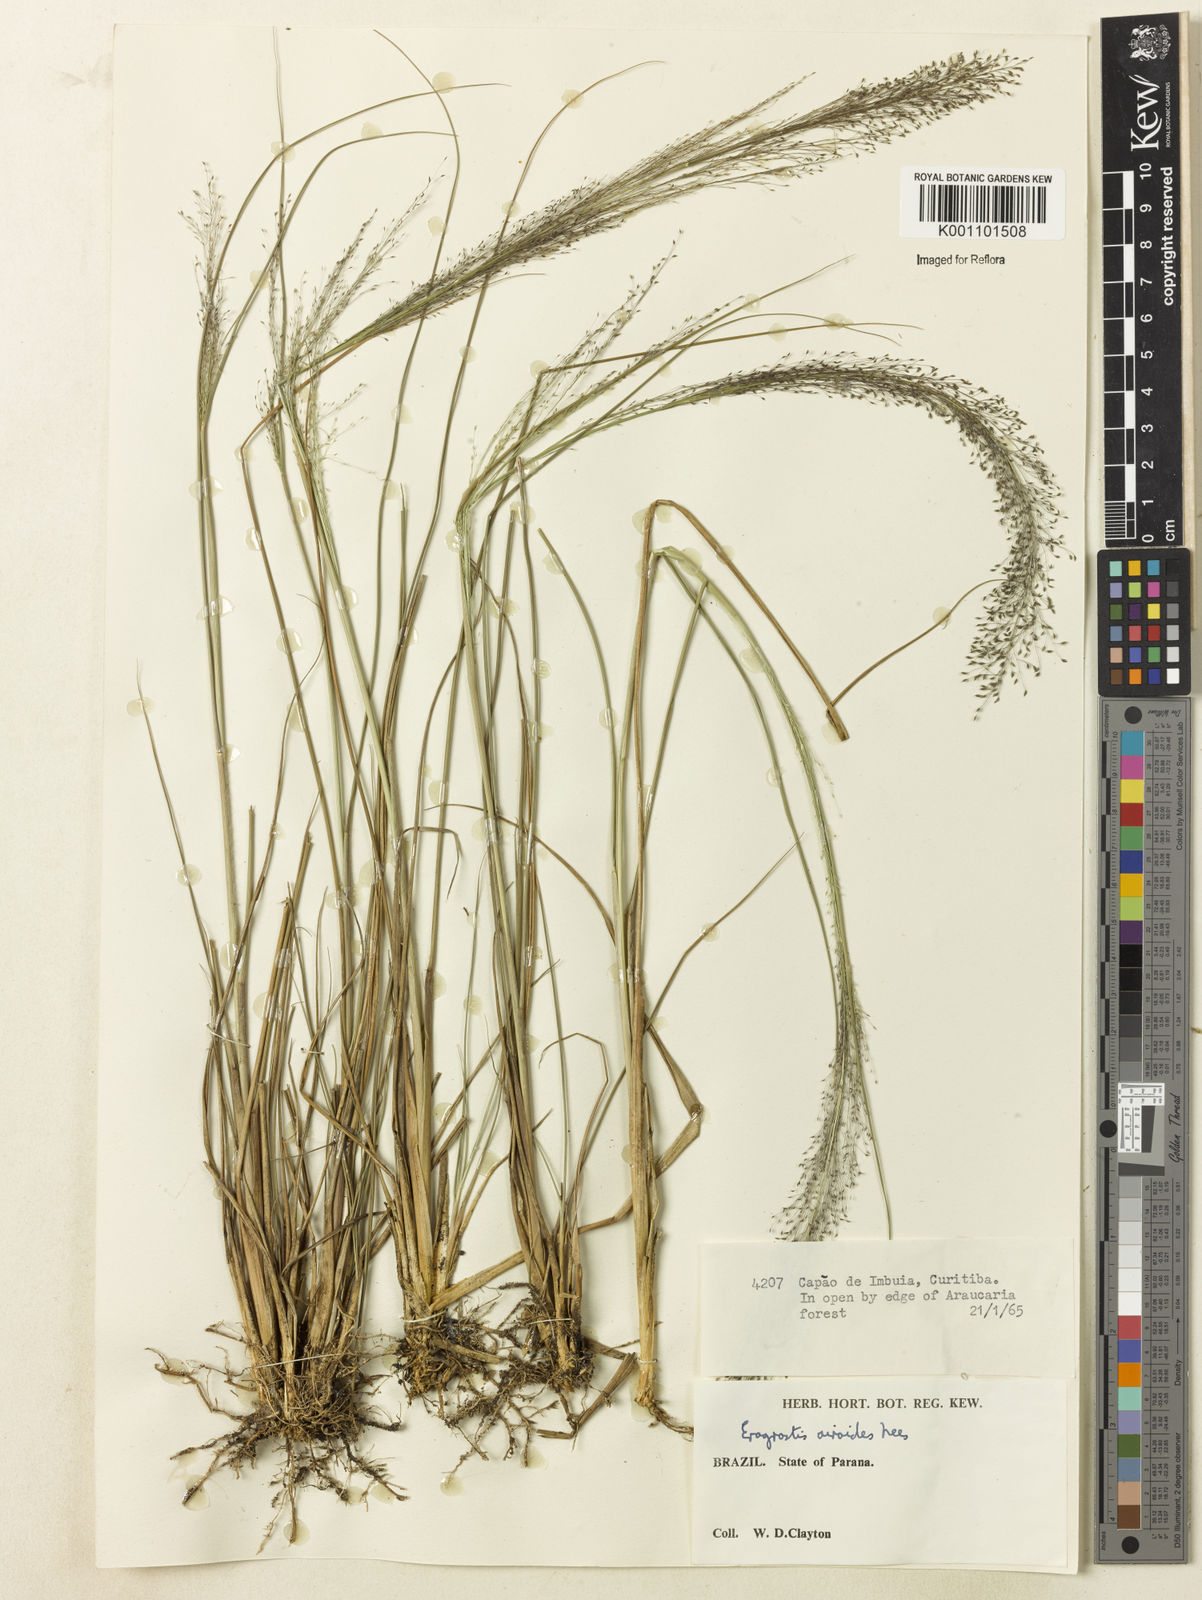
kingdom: Plantae
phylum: Tracheophyta
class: Liliopsida
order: Poales
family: Poaceae
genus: Eragrostis
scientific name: Eragrostis airoides
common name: Darnel lovegrass
